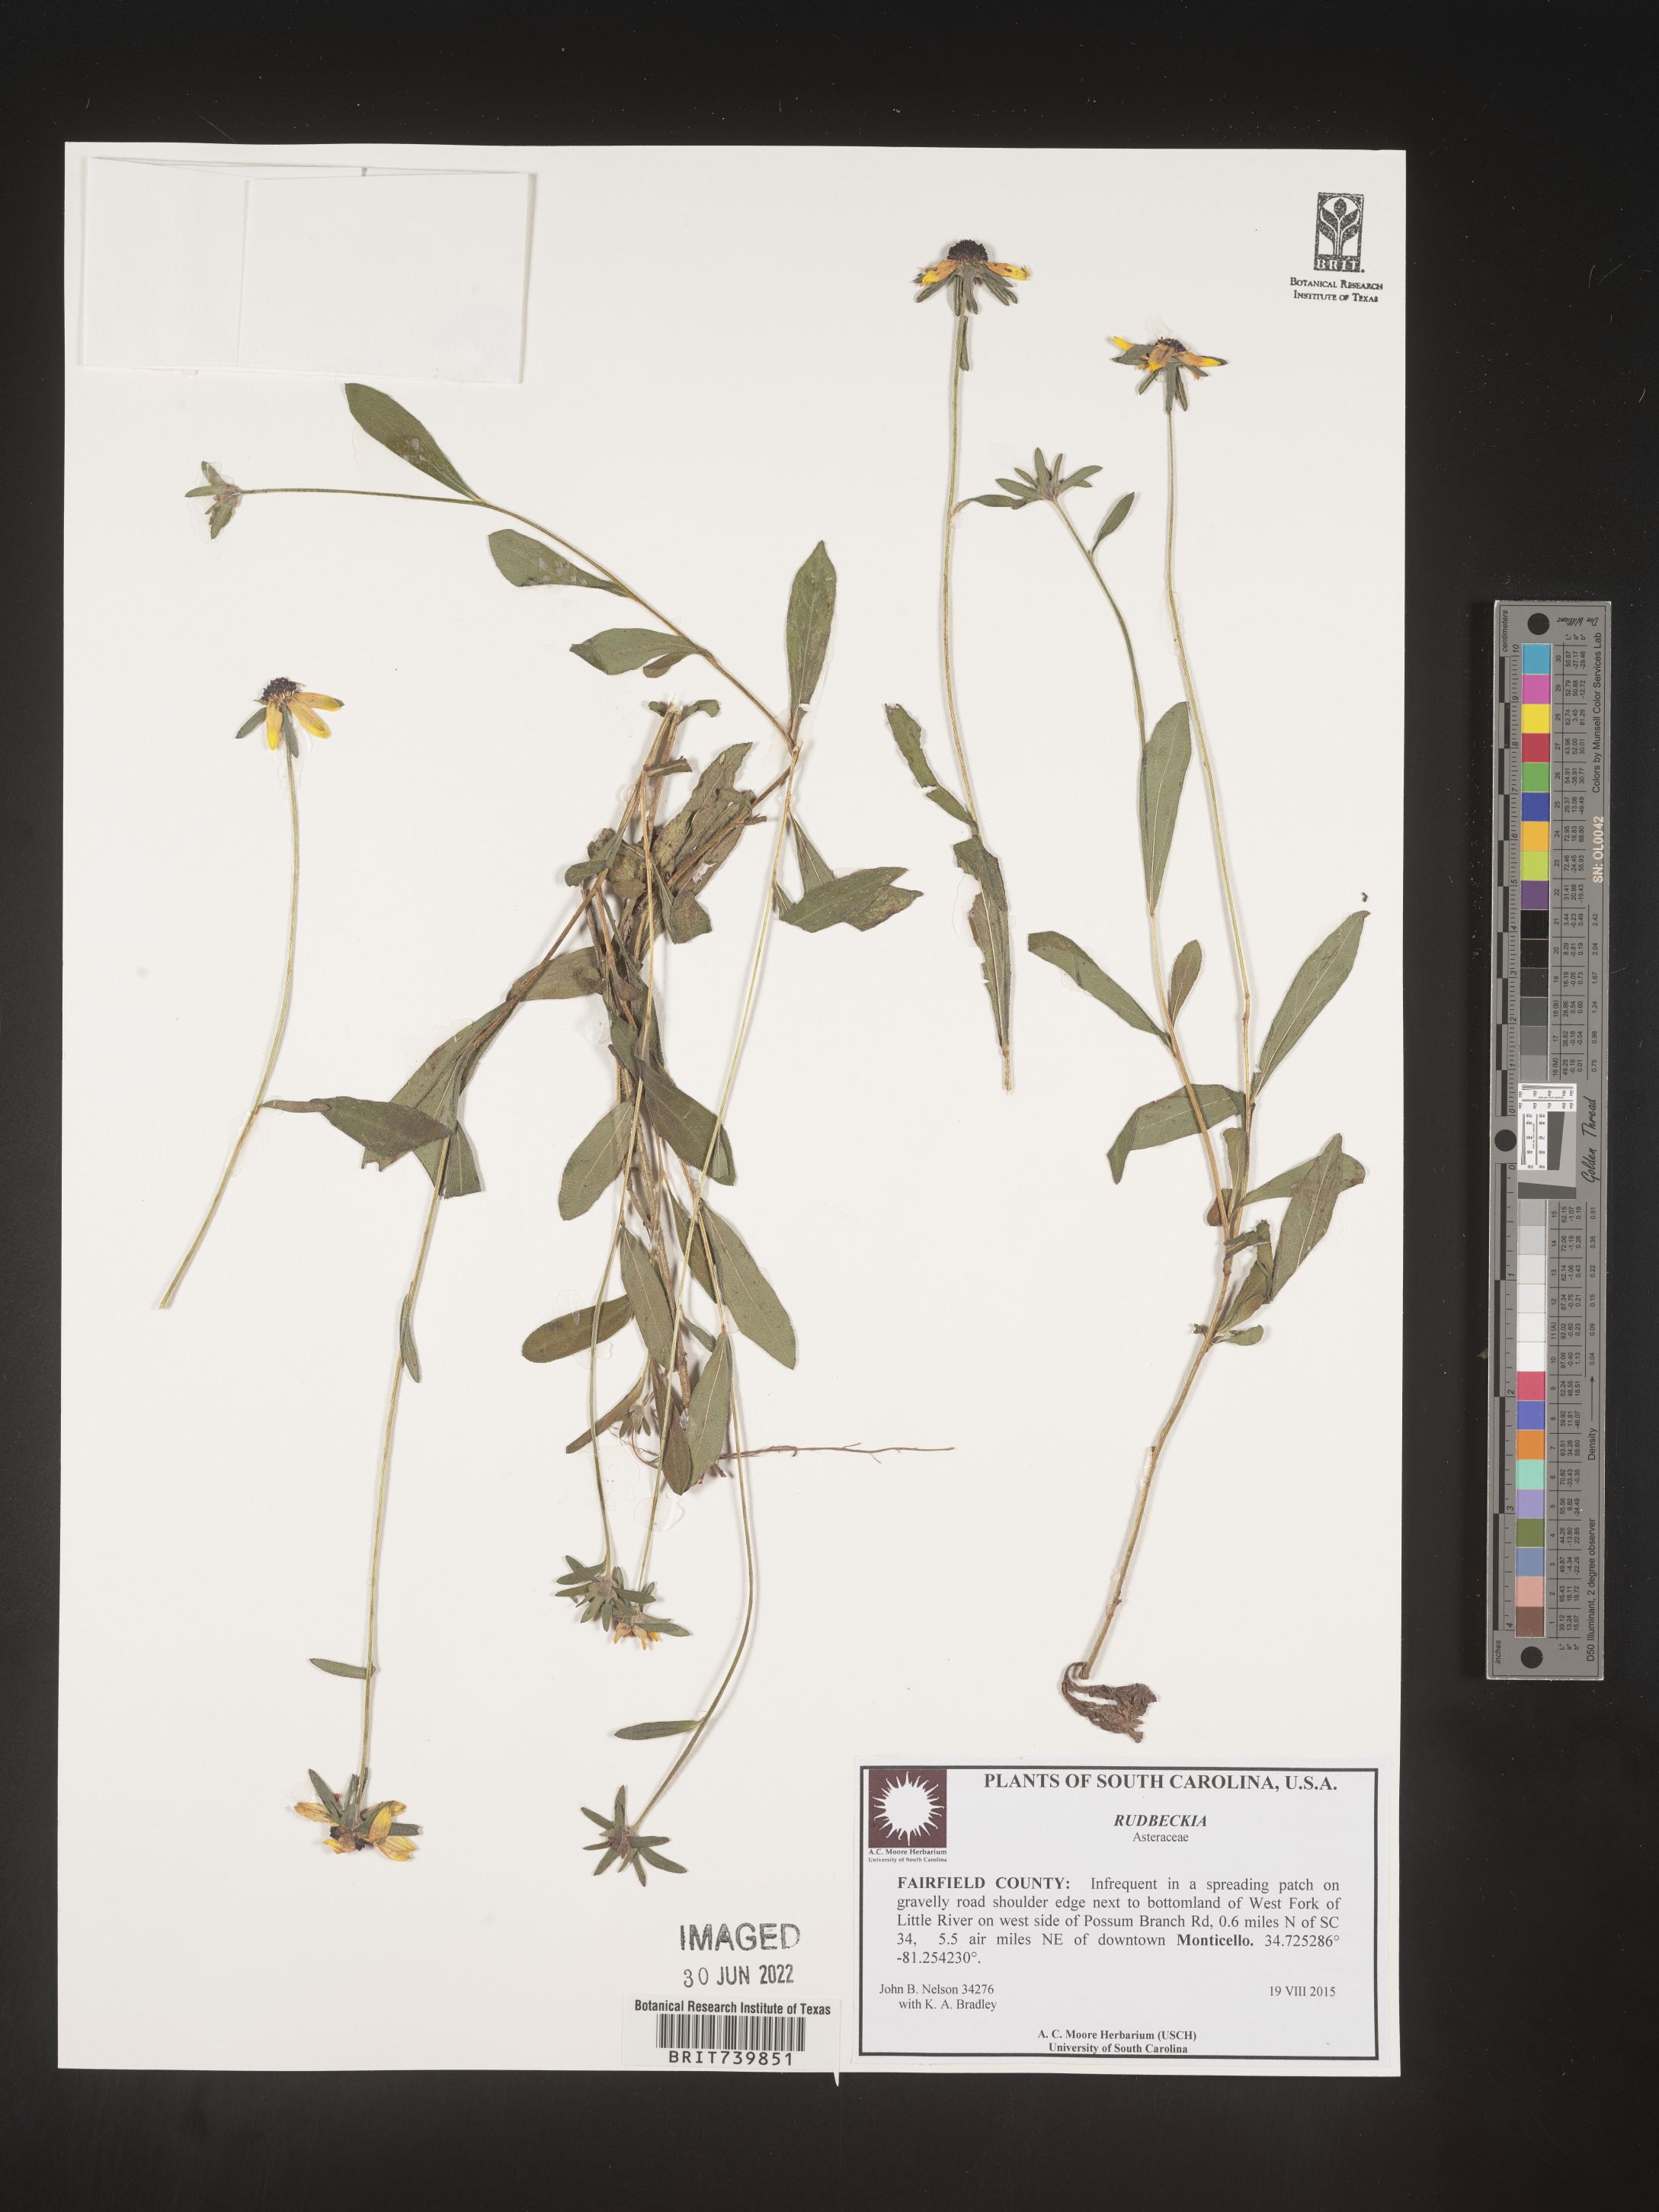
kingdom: Plantae
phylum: Tracheophyta
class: Magnoliopsida
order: Asterales
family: Asteraceae
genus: Rudbeckia
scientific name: Rudbeckia
